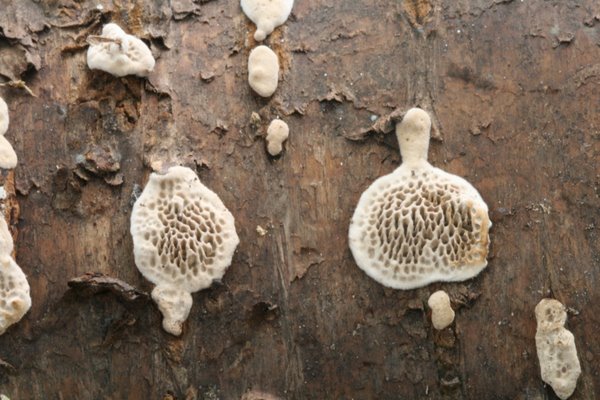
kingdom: Fungi
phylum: Basidiomycota
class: Agaricomycetes
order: Polyporales
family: Polyporaceae
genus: Podofomes
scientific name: Podofomes mollis
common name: blød begporesvamp
